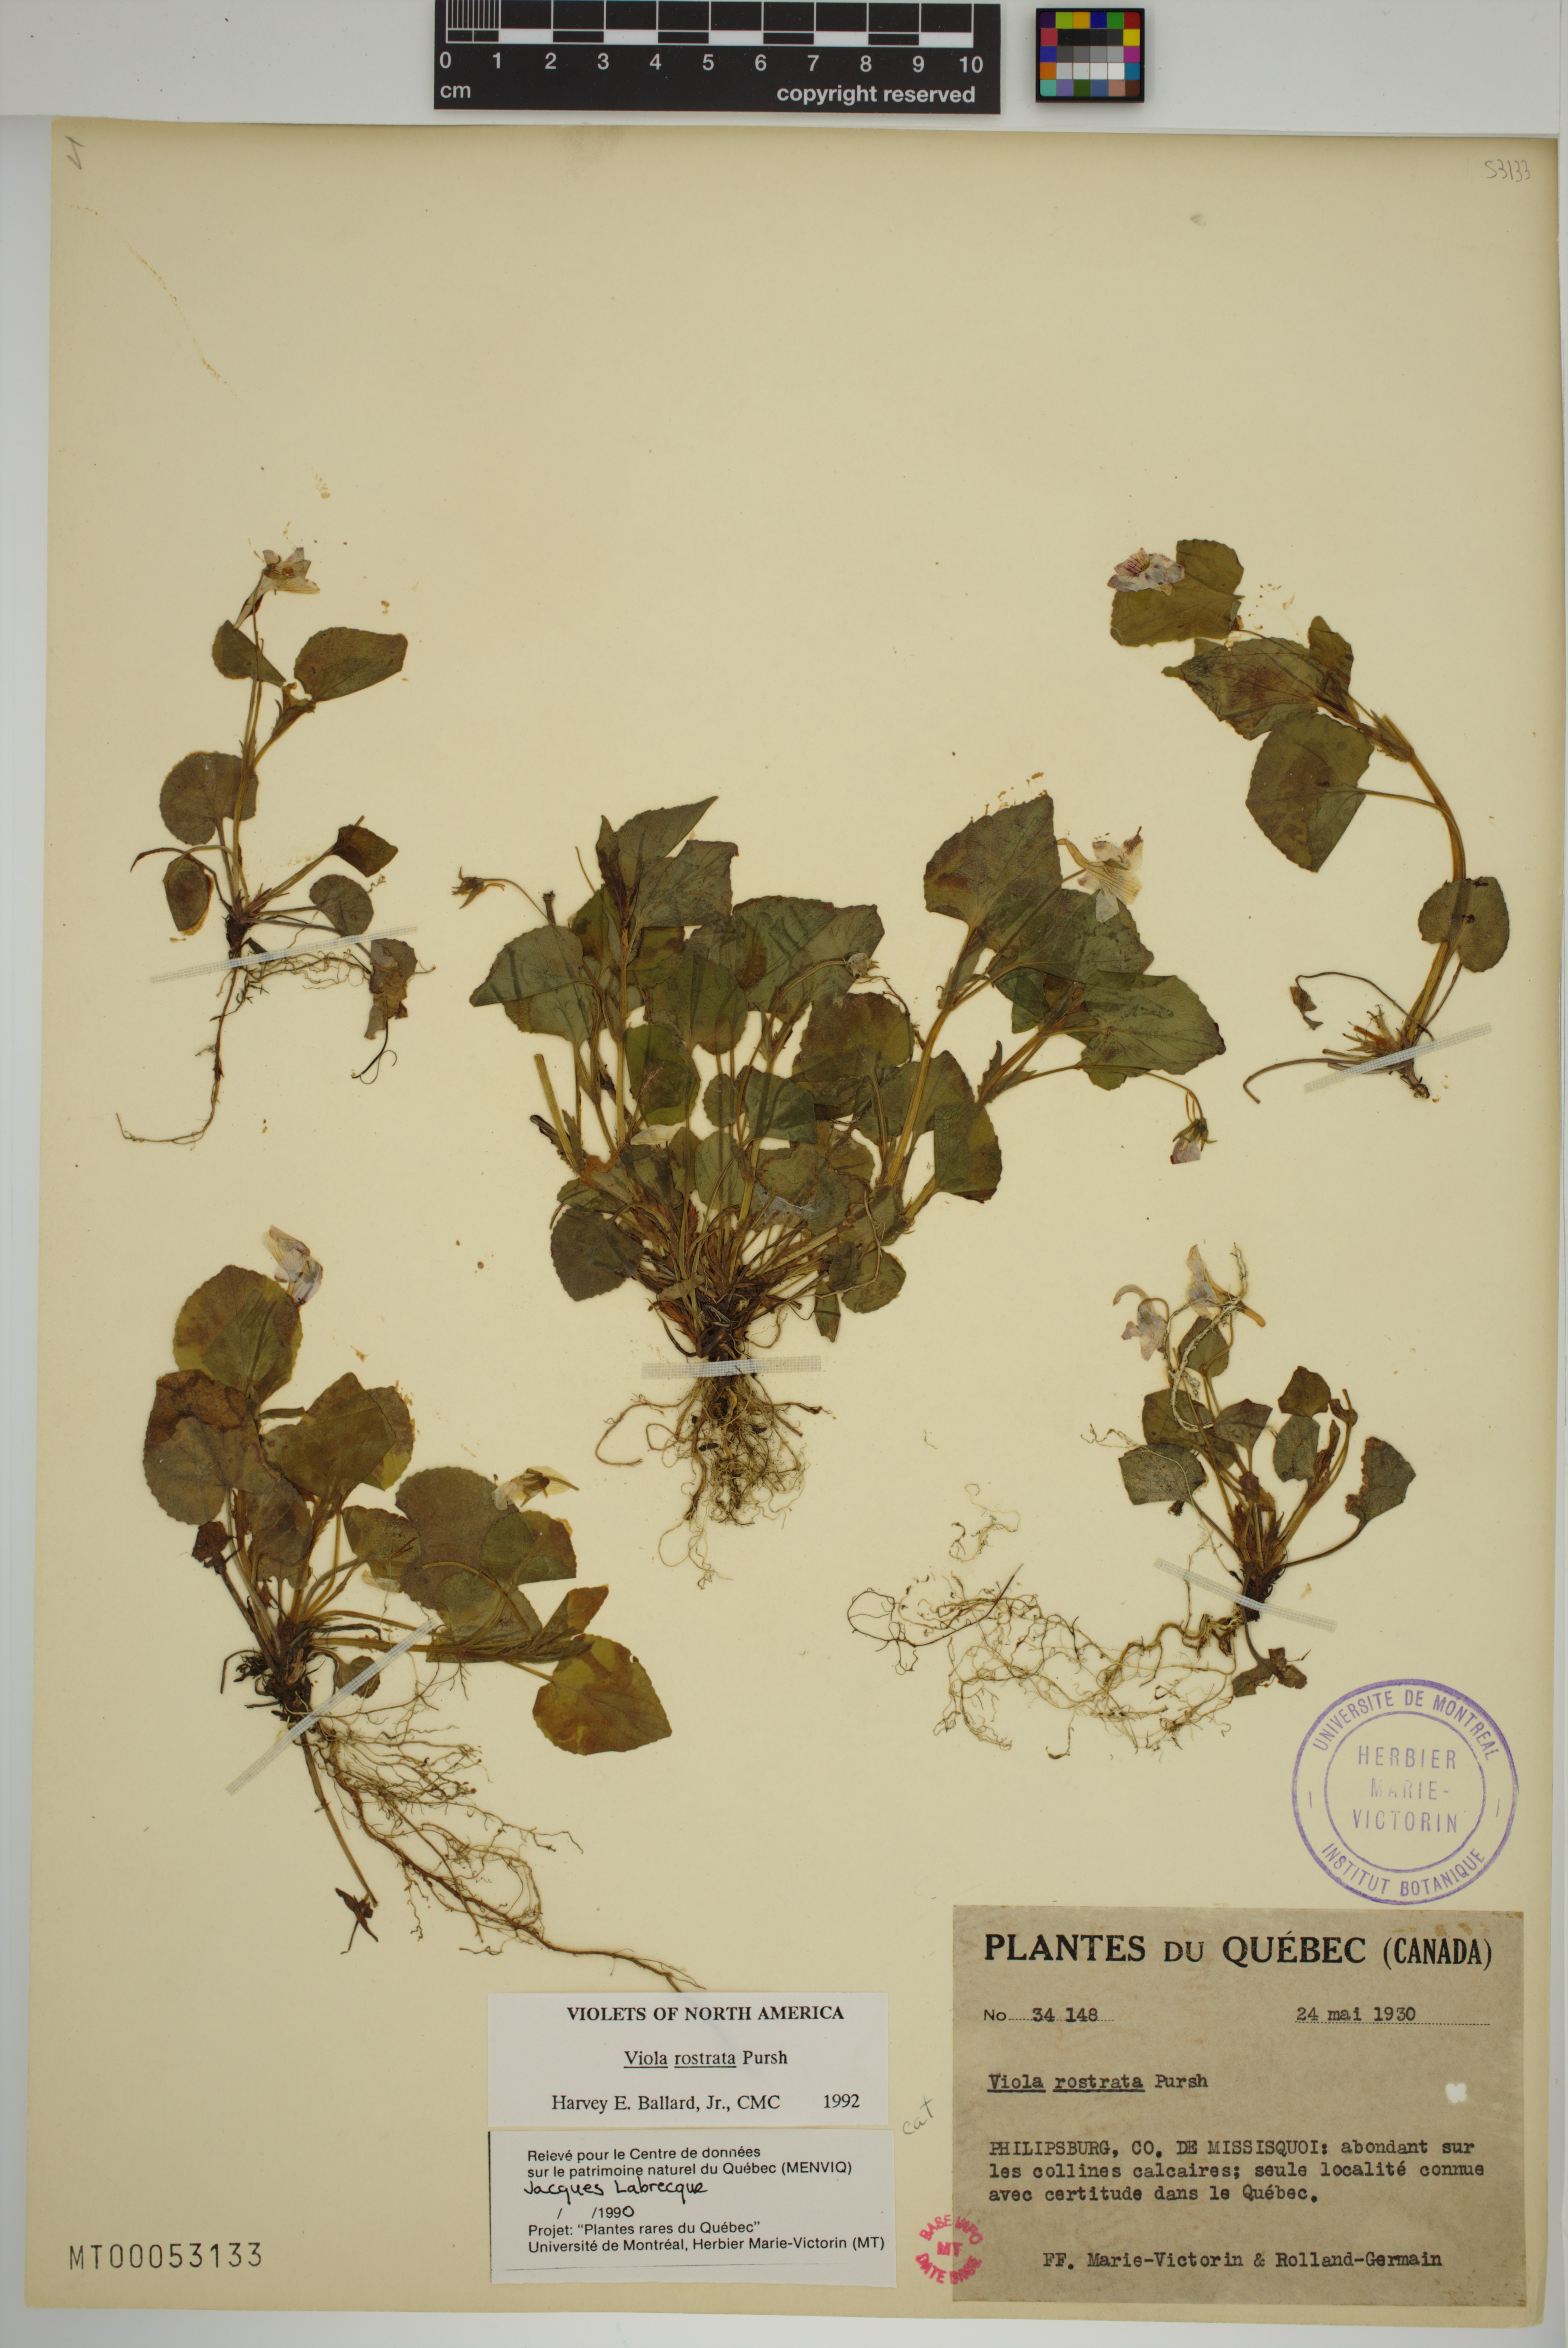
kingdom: Plantae
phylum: Tracheophyta
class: Magnoliopsida
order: Malpighiales
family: Violaceae
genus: Viola
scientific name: Viola rostrata
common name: Long-spur violet
